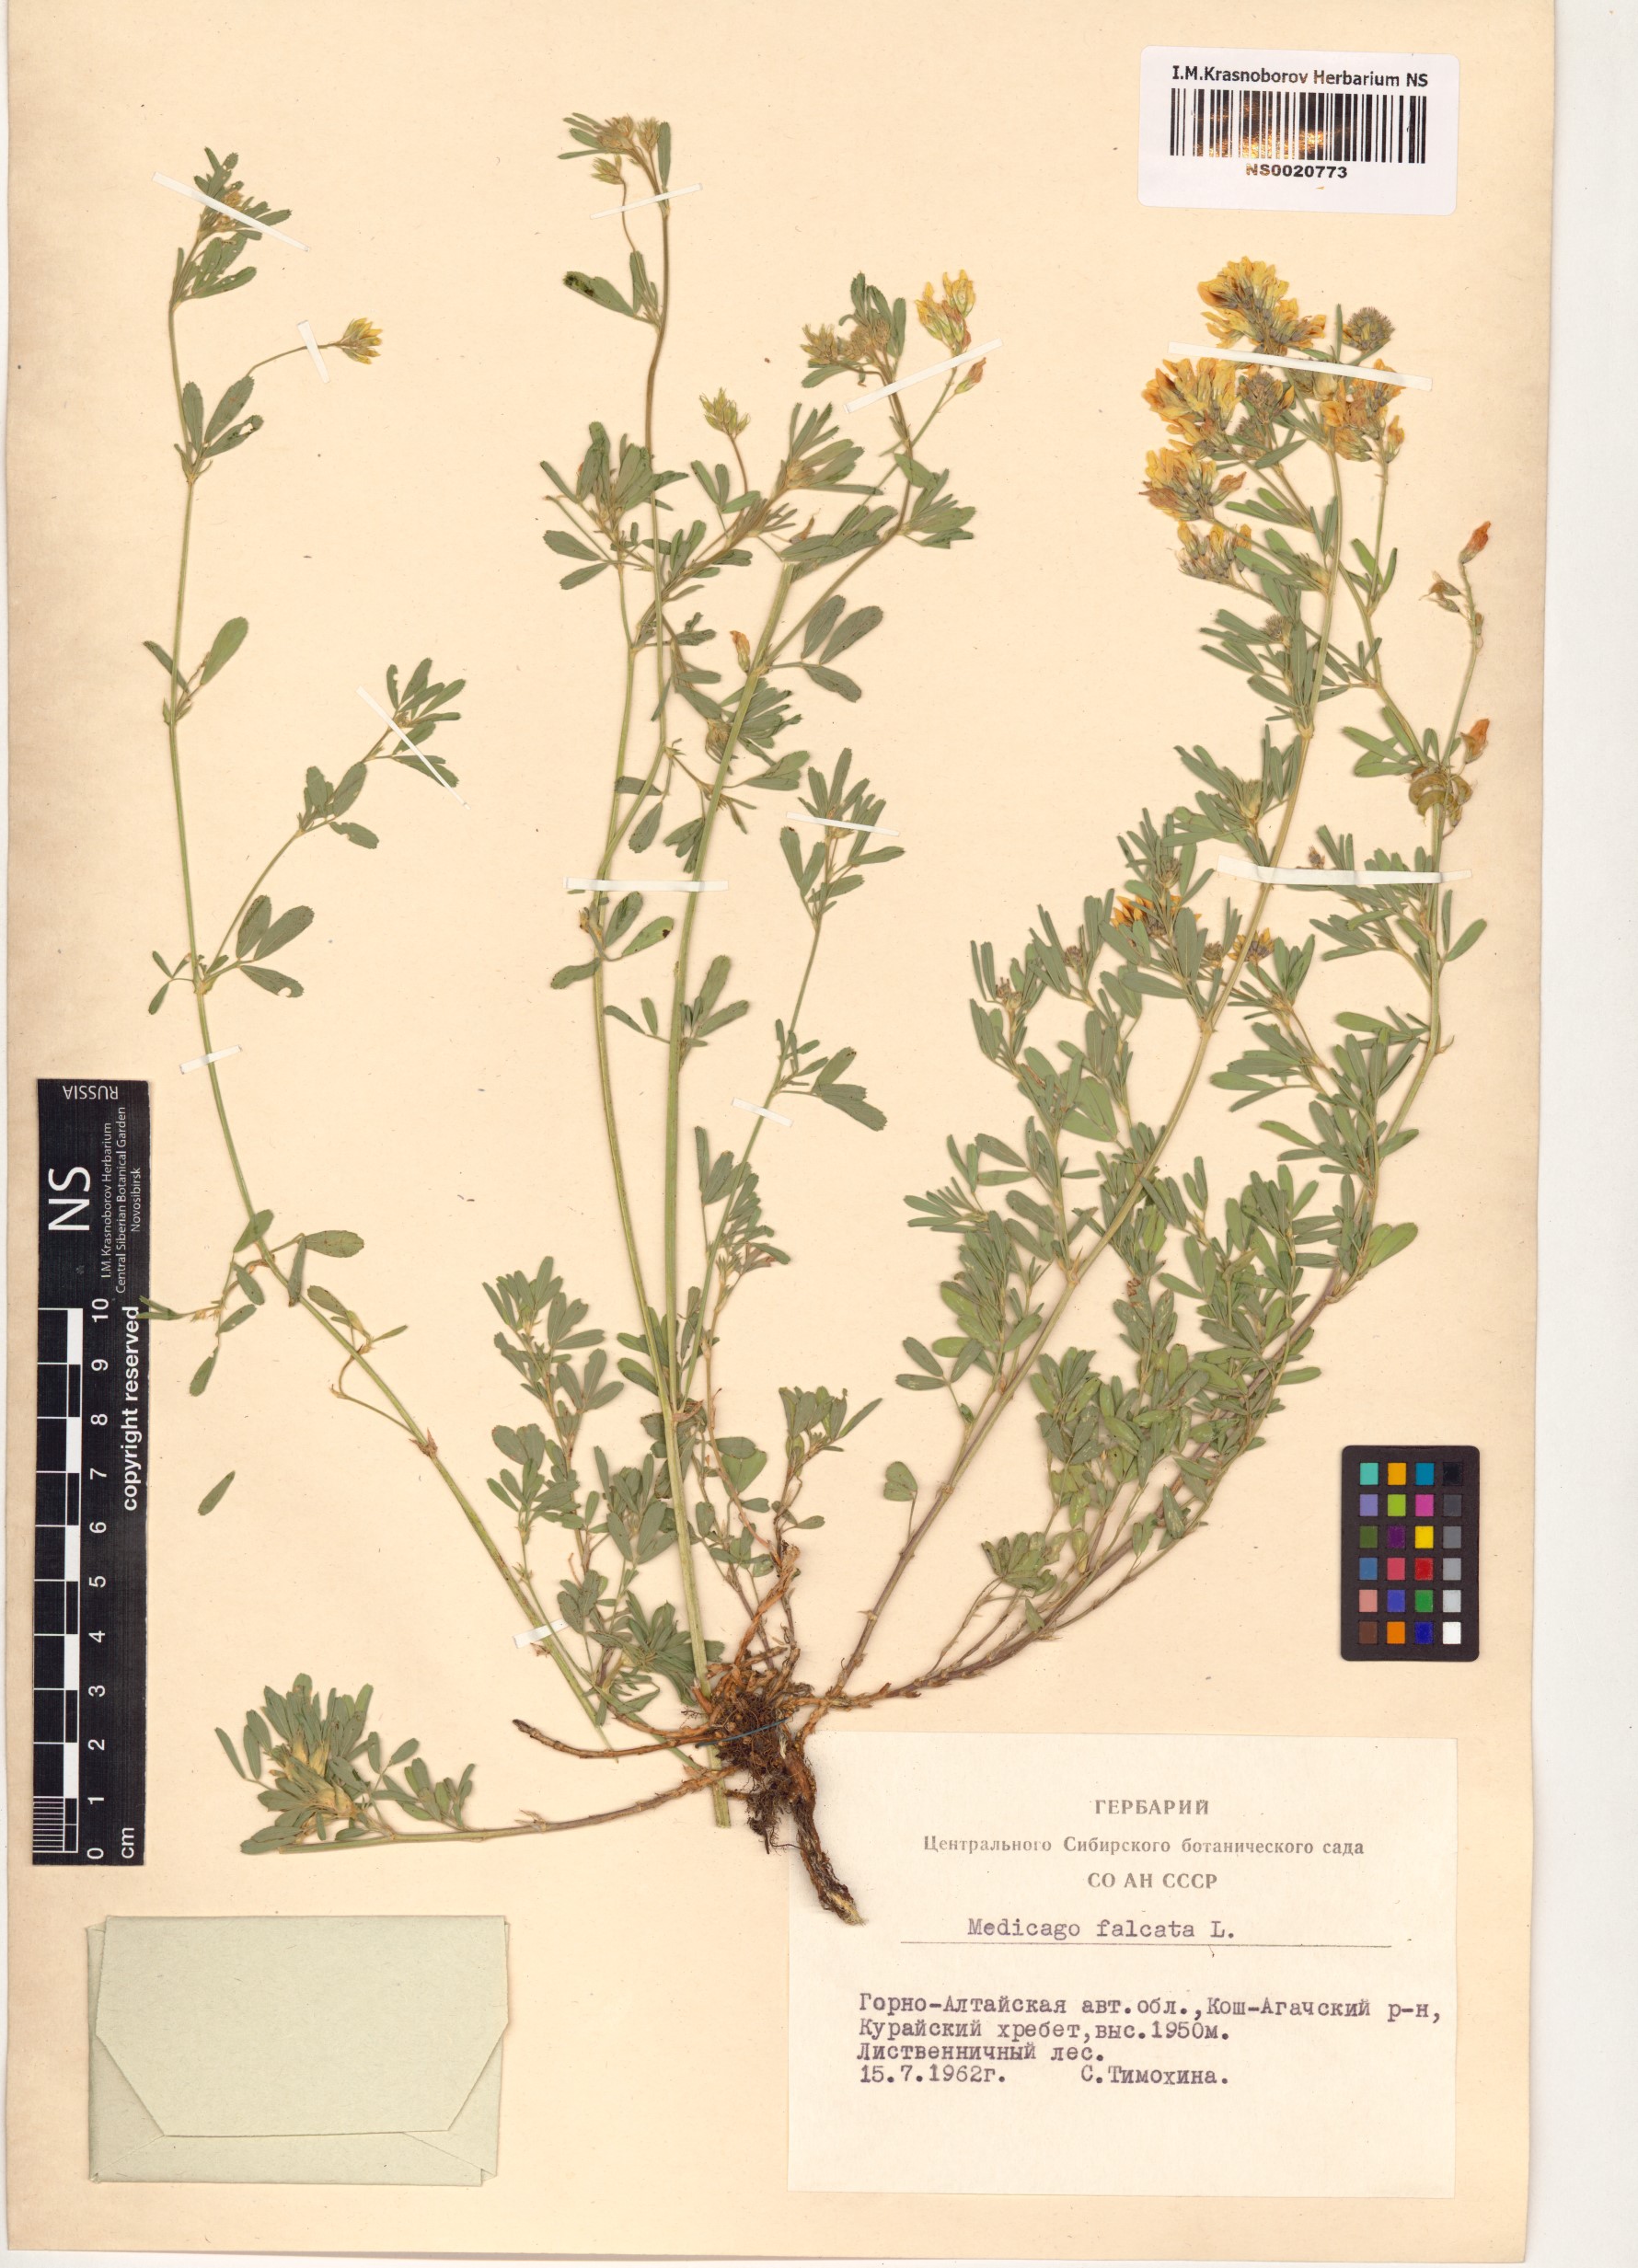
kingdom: Plantae
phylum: Tracheophyta
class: Magnoliopsida
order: Fabales
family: Fabaceae
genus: Medicago
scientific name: Medicago falcata
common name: Sickle medick
